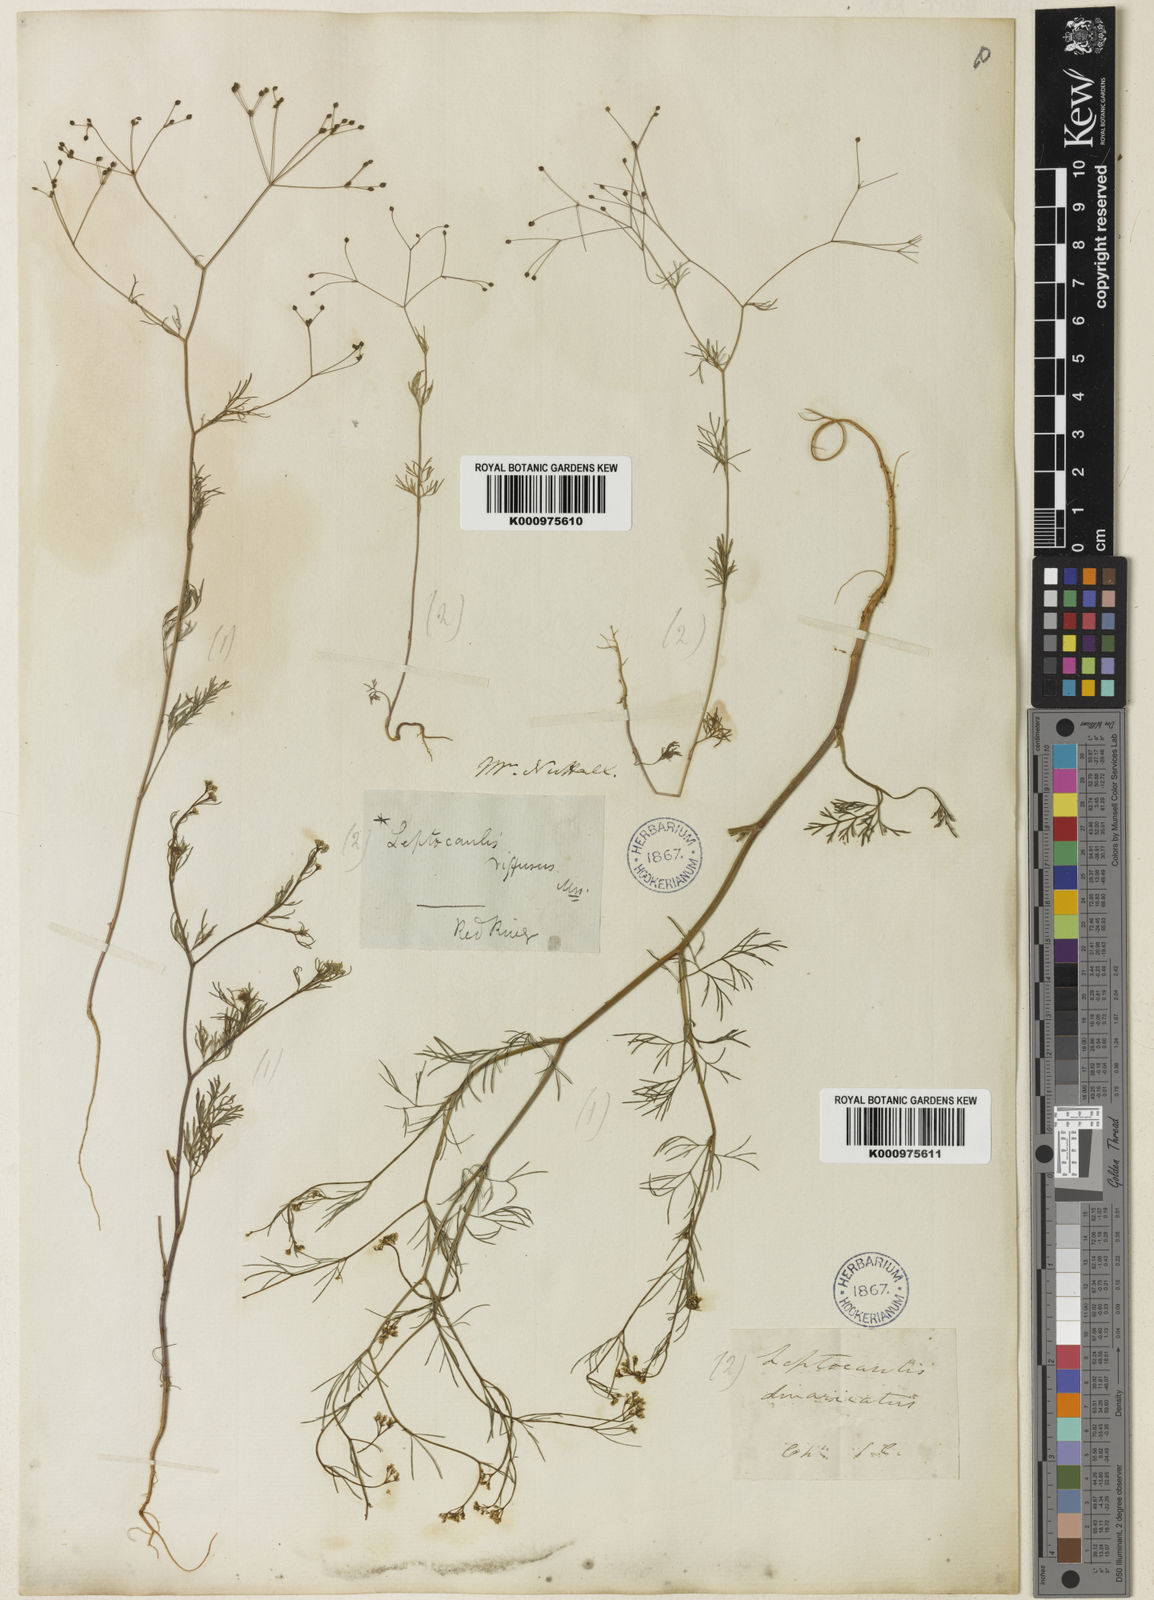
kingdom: Plantae
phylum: Tracheophyta
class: Magnoliopsida
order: Apiales
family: Apiaceae
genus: Spermolepis
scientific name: Spermolepis divaricata
